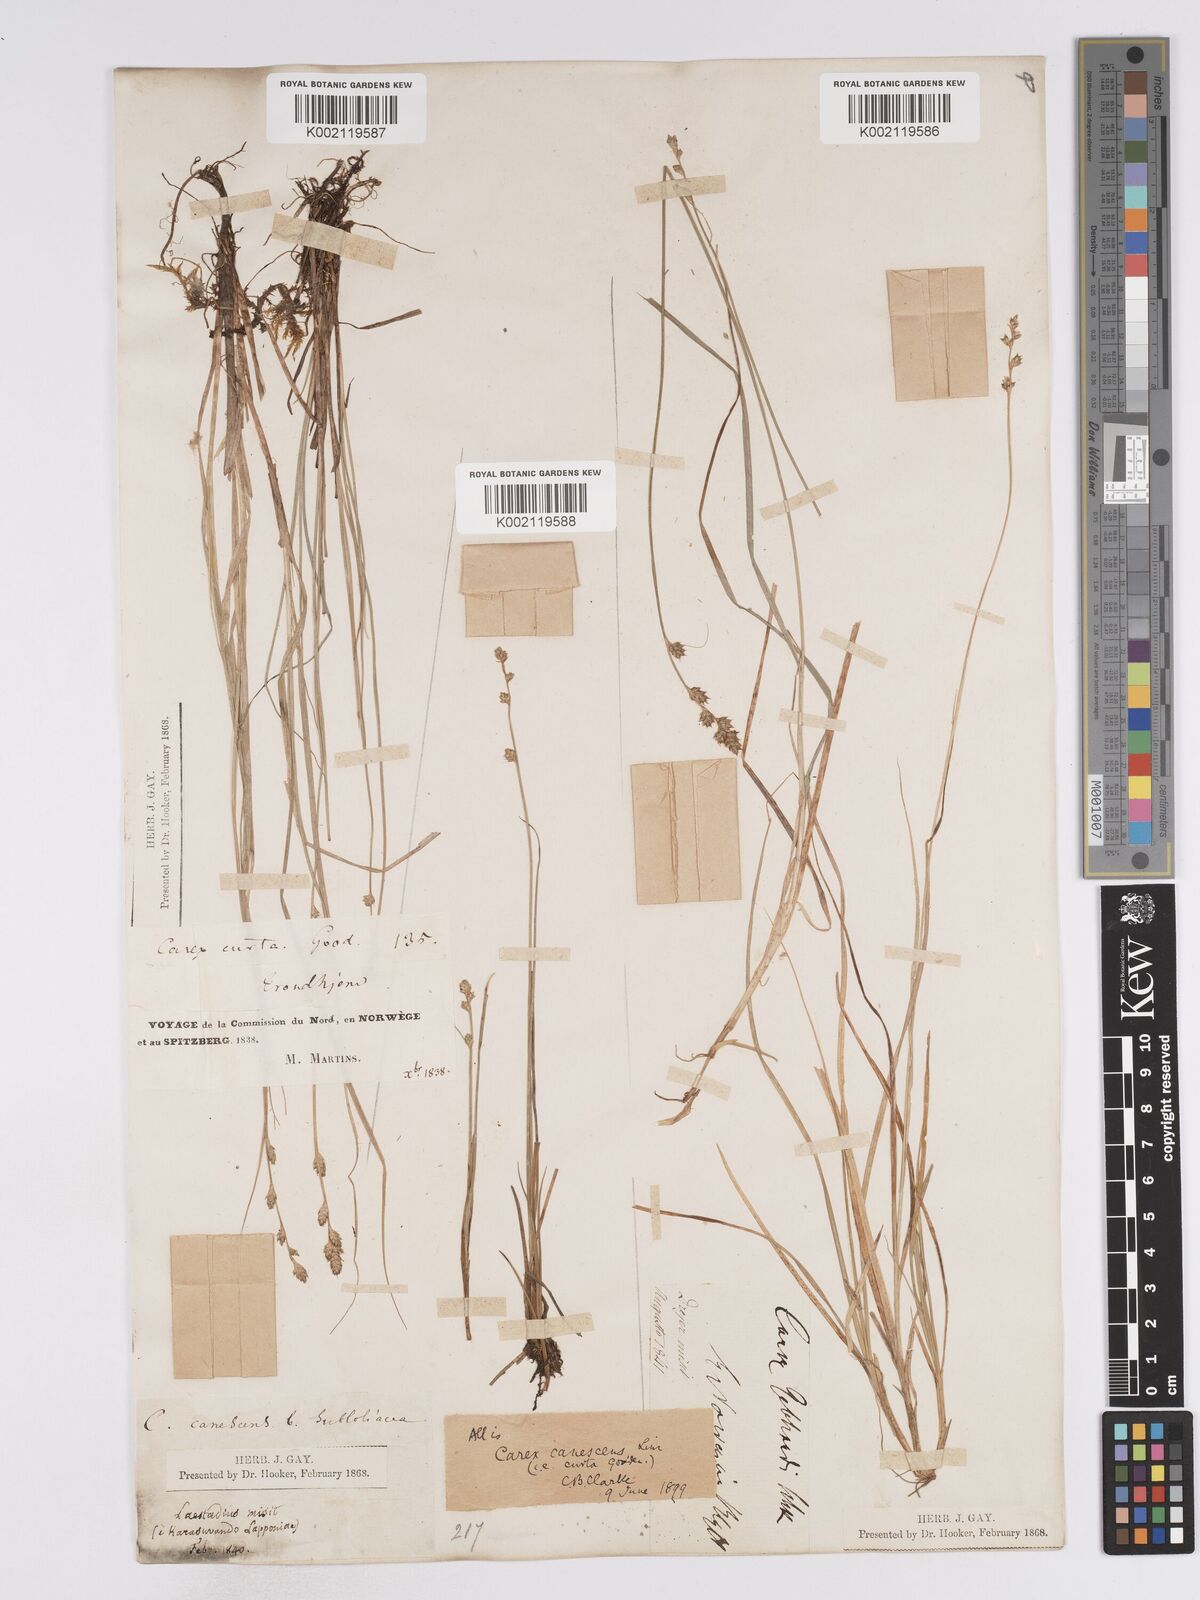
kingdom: Plantae
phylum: Tracheophyta
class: Liliopsida
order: Poales
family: Cyperaceae
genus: Carex
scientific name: Carex curta
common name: White sedge
